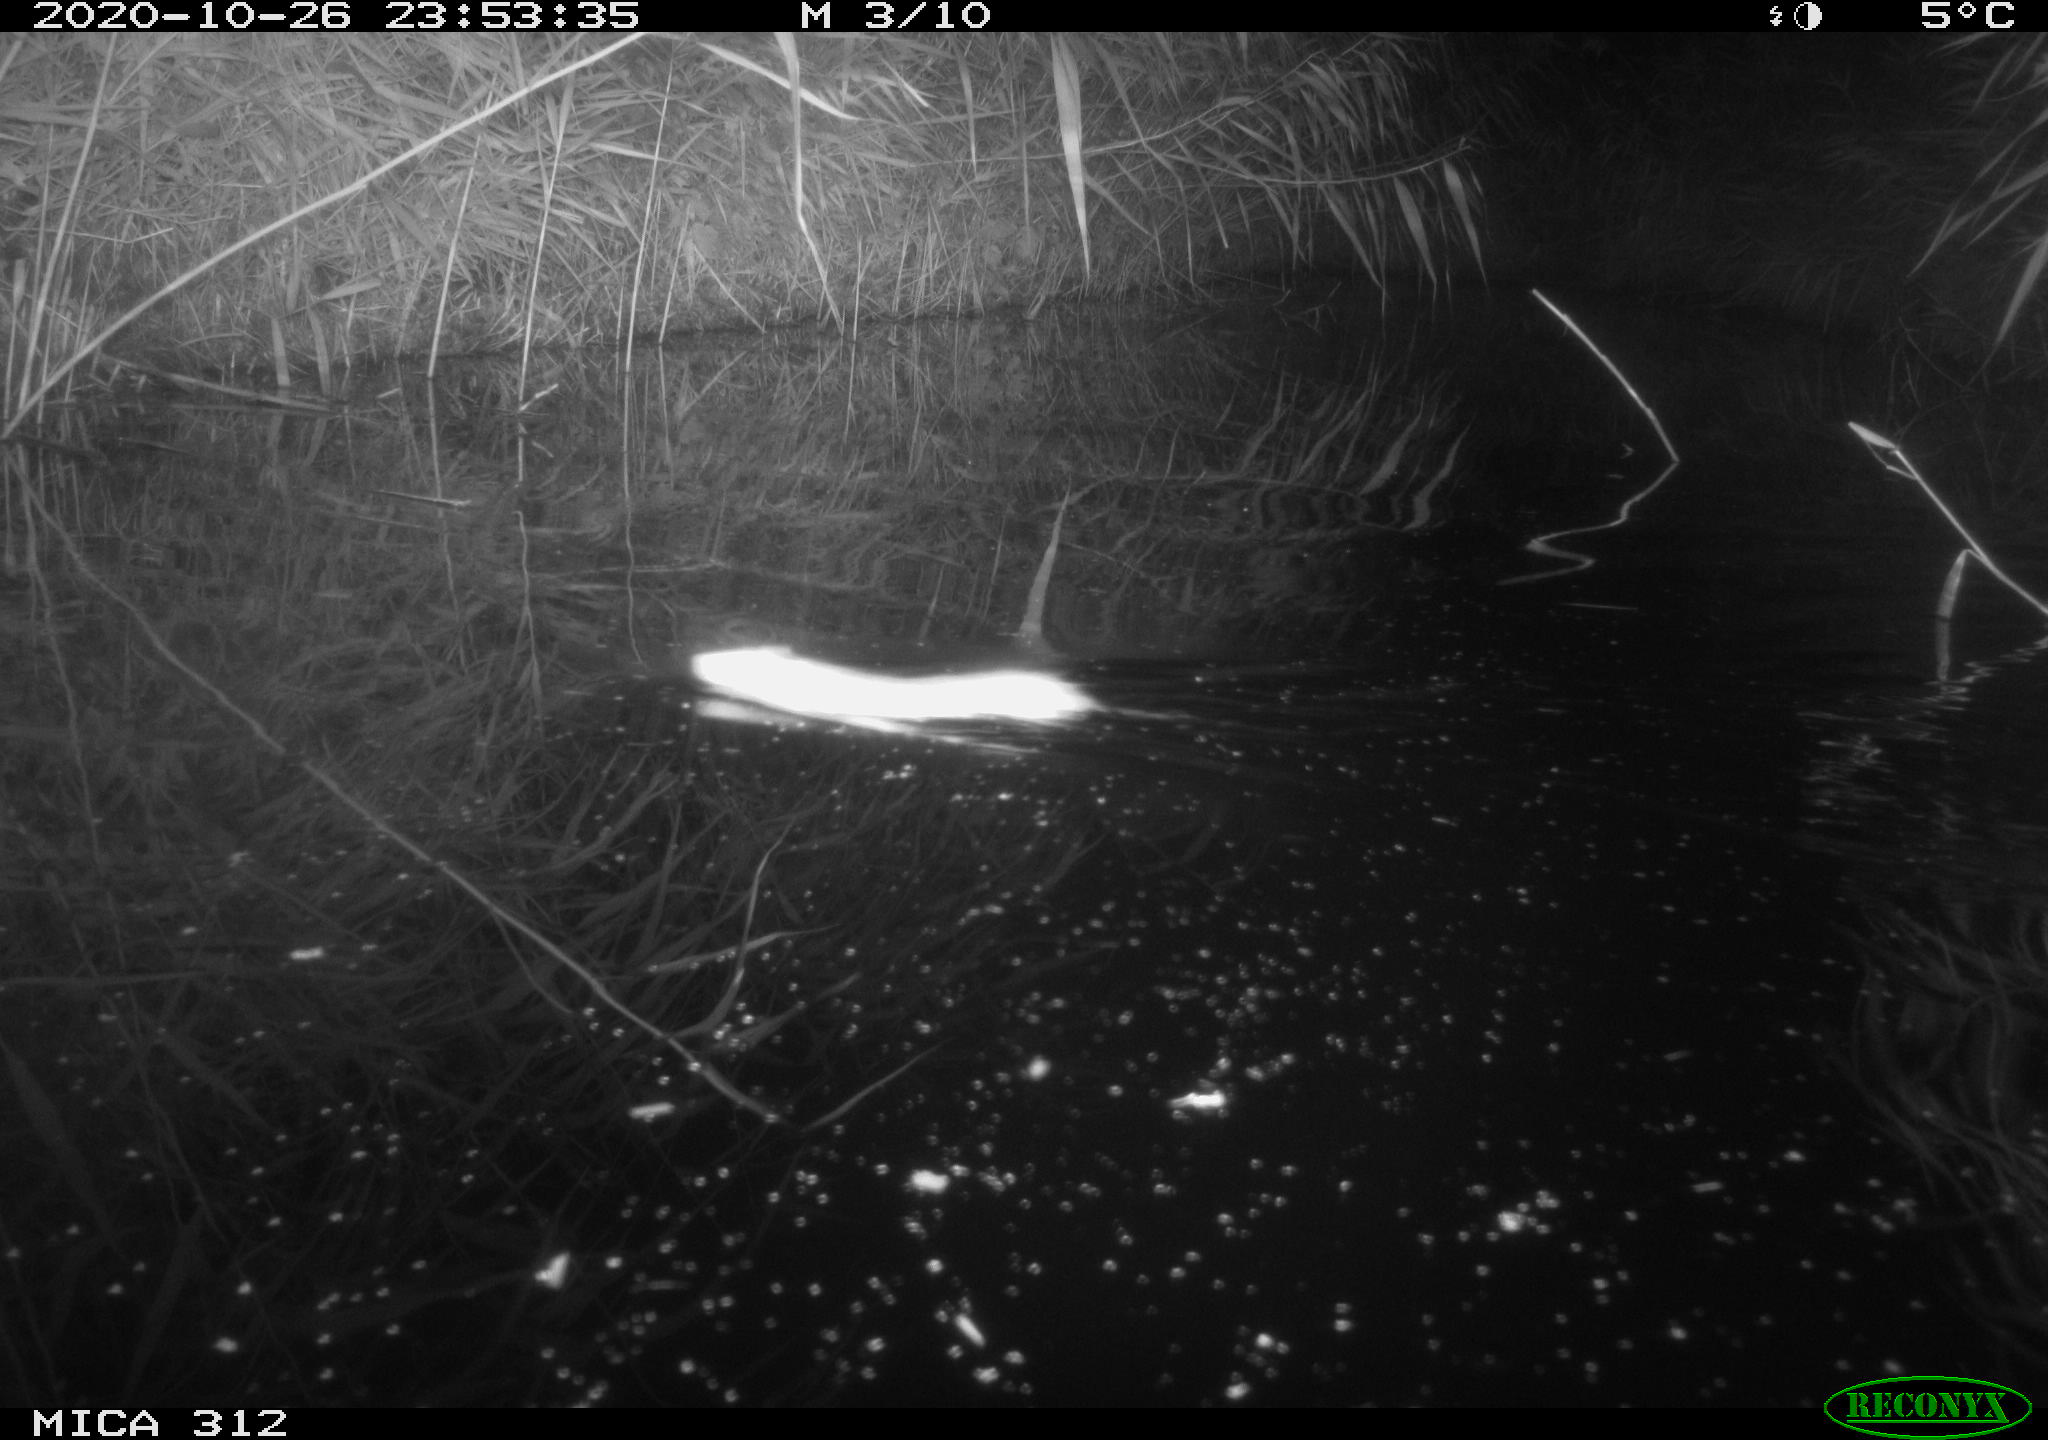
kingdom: Animalia
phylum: Chordata
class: Mammalia
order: Rodentia
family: Muridae
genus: Rattus
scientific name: Rattus norvegicus
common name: Brown rat
